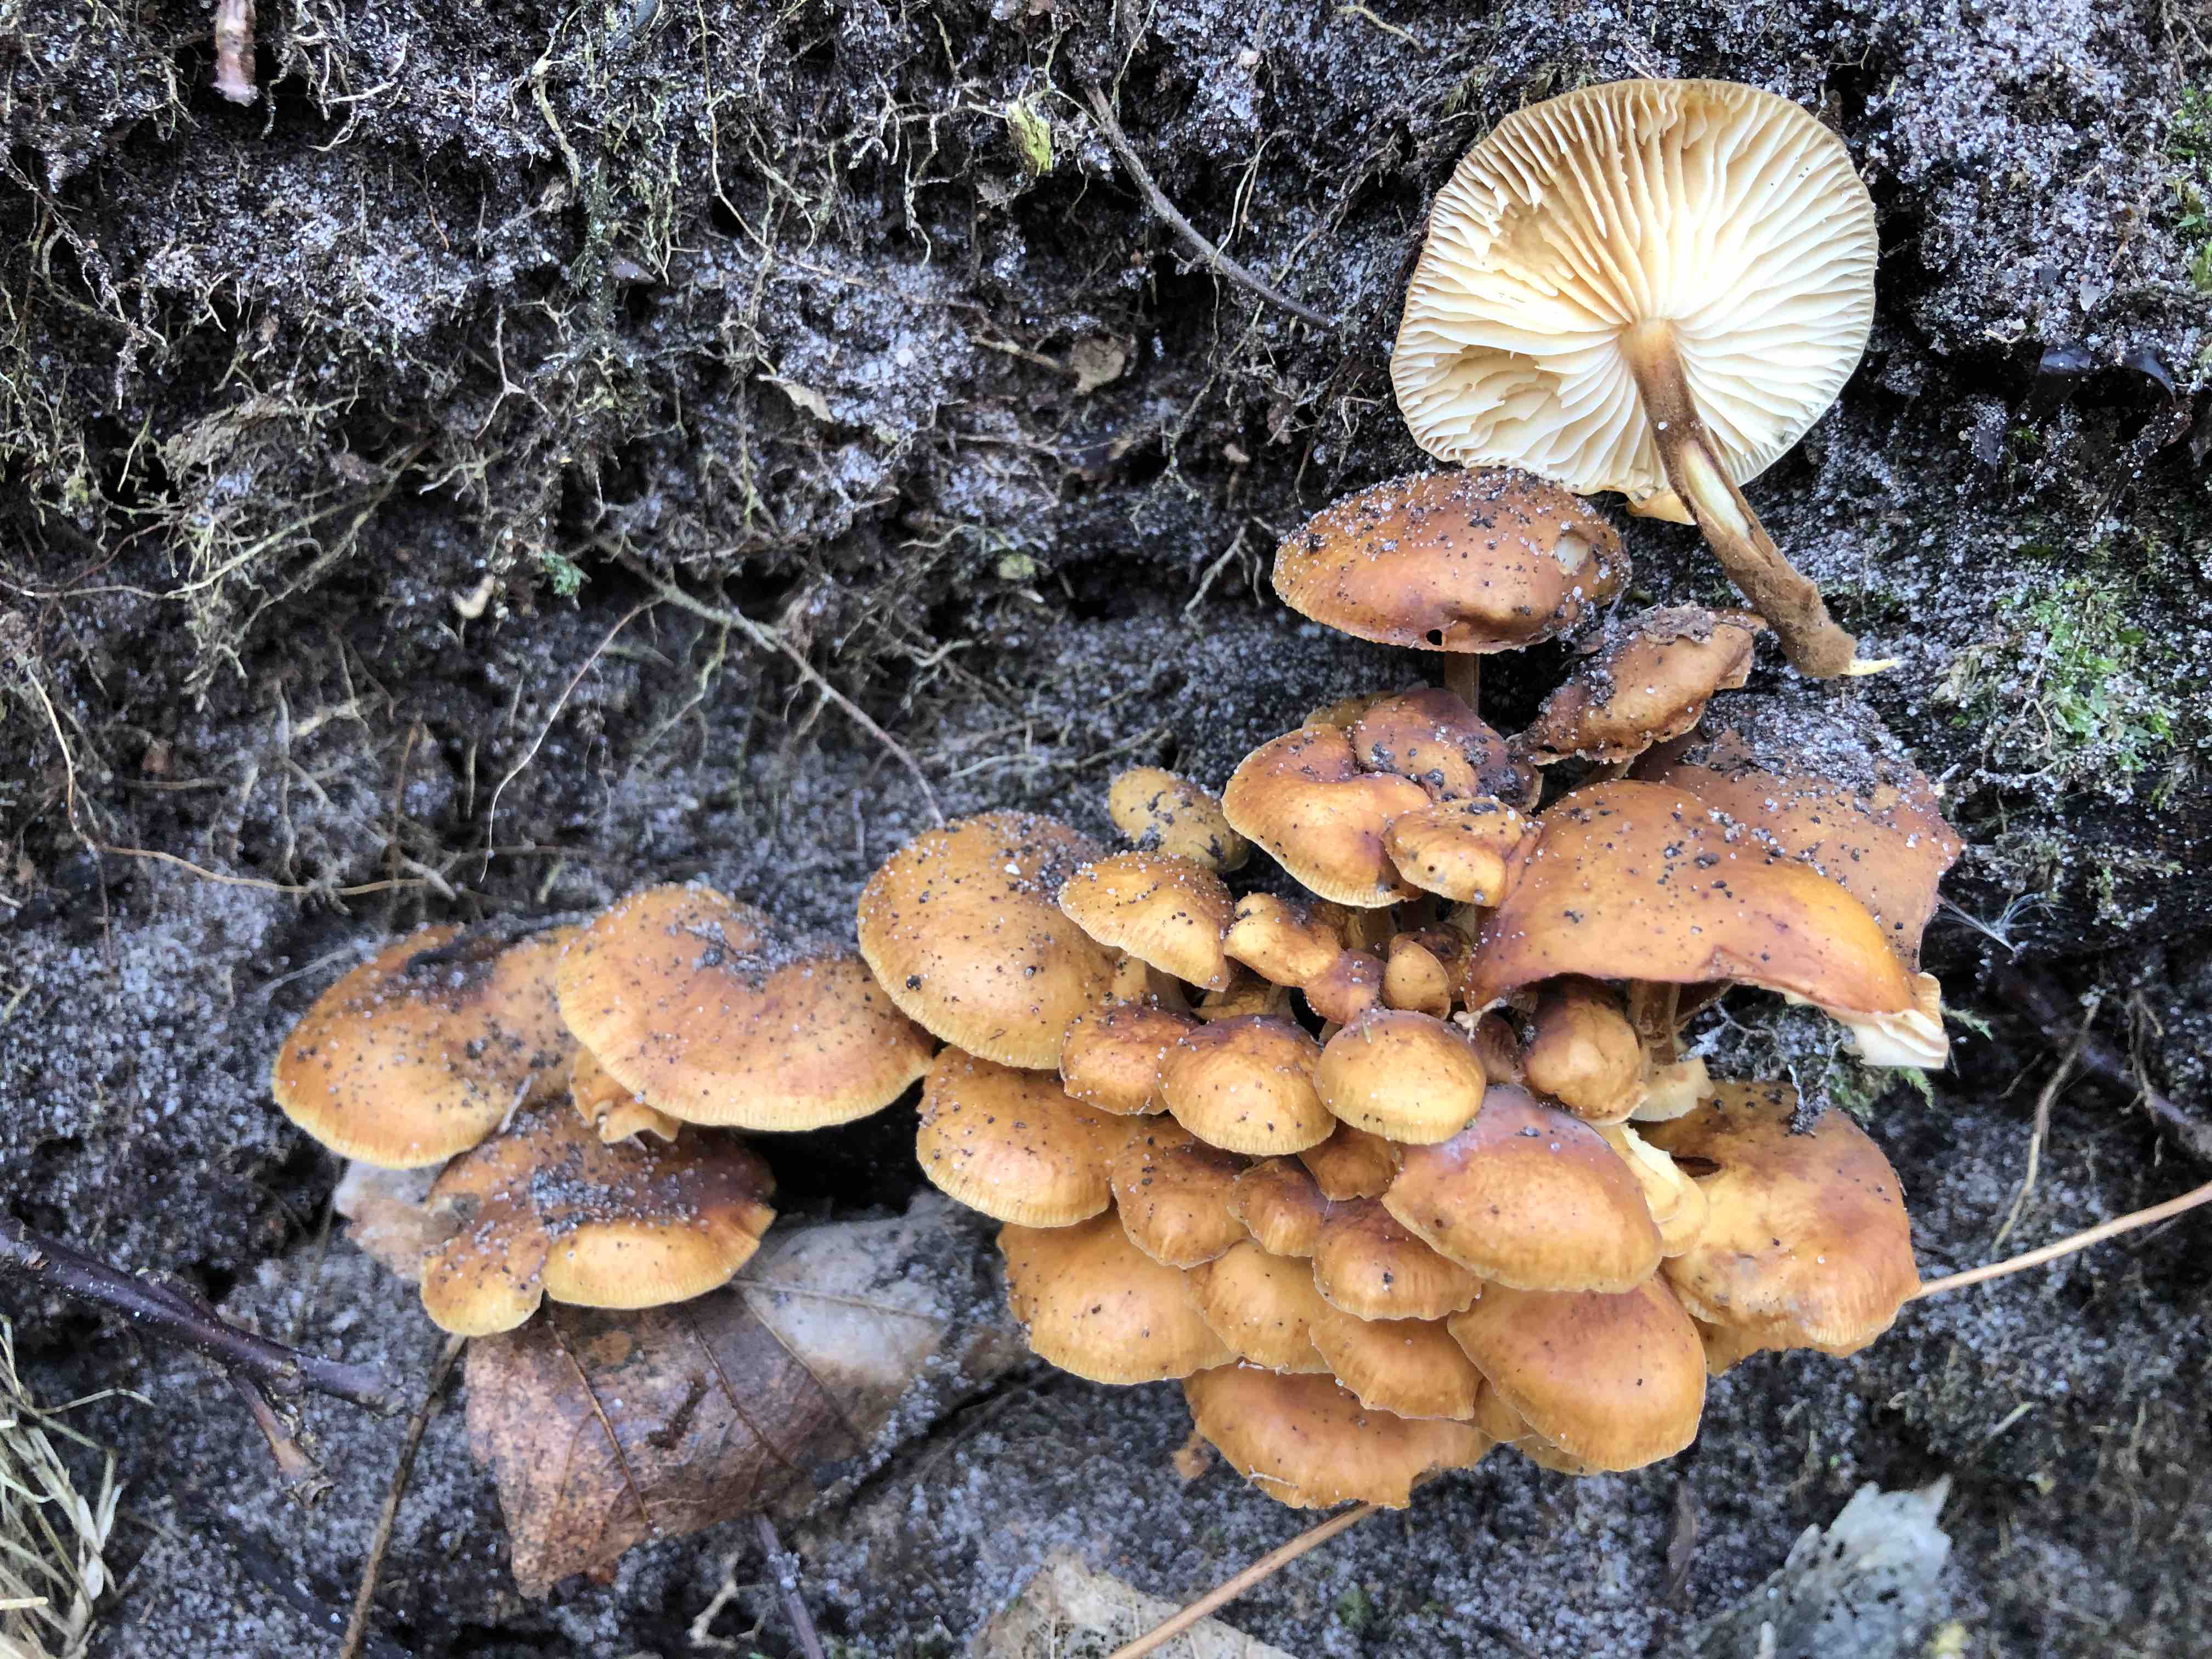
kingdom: Fungi
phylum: Basidiomycota
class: Agaricomycetes
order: Agaricales
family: Physalacriaceae
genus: Flammulina
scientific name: Flammulina velutipes
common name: gul fløjlsfod
